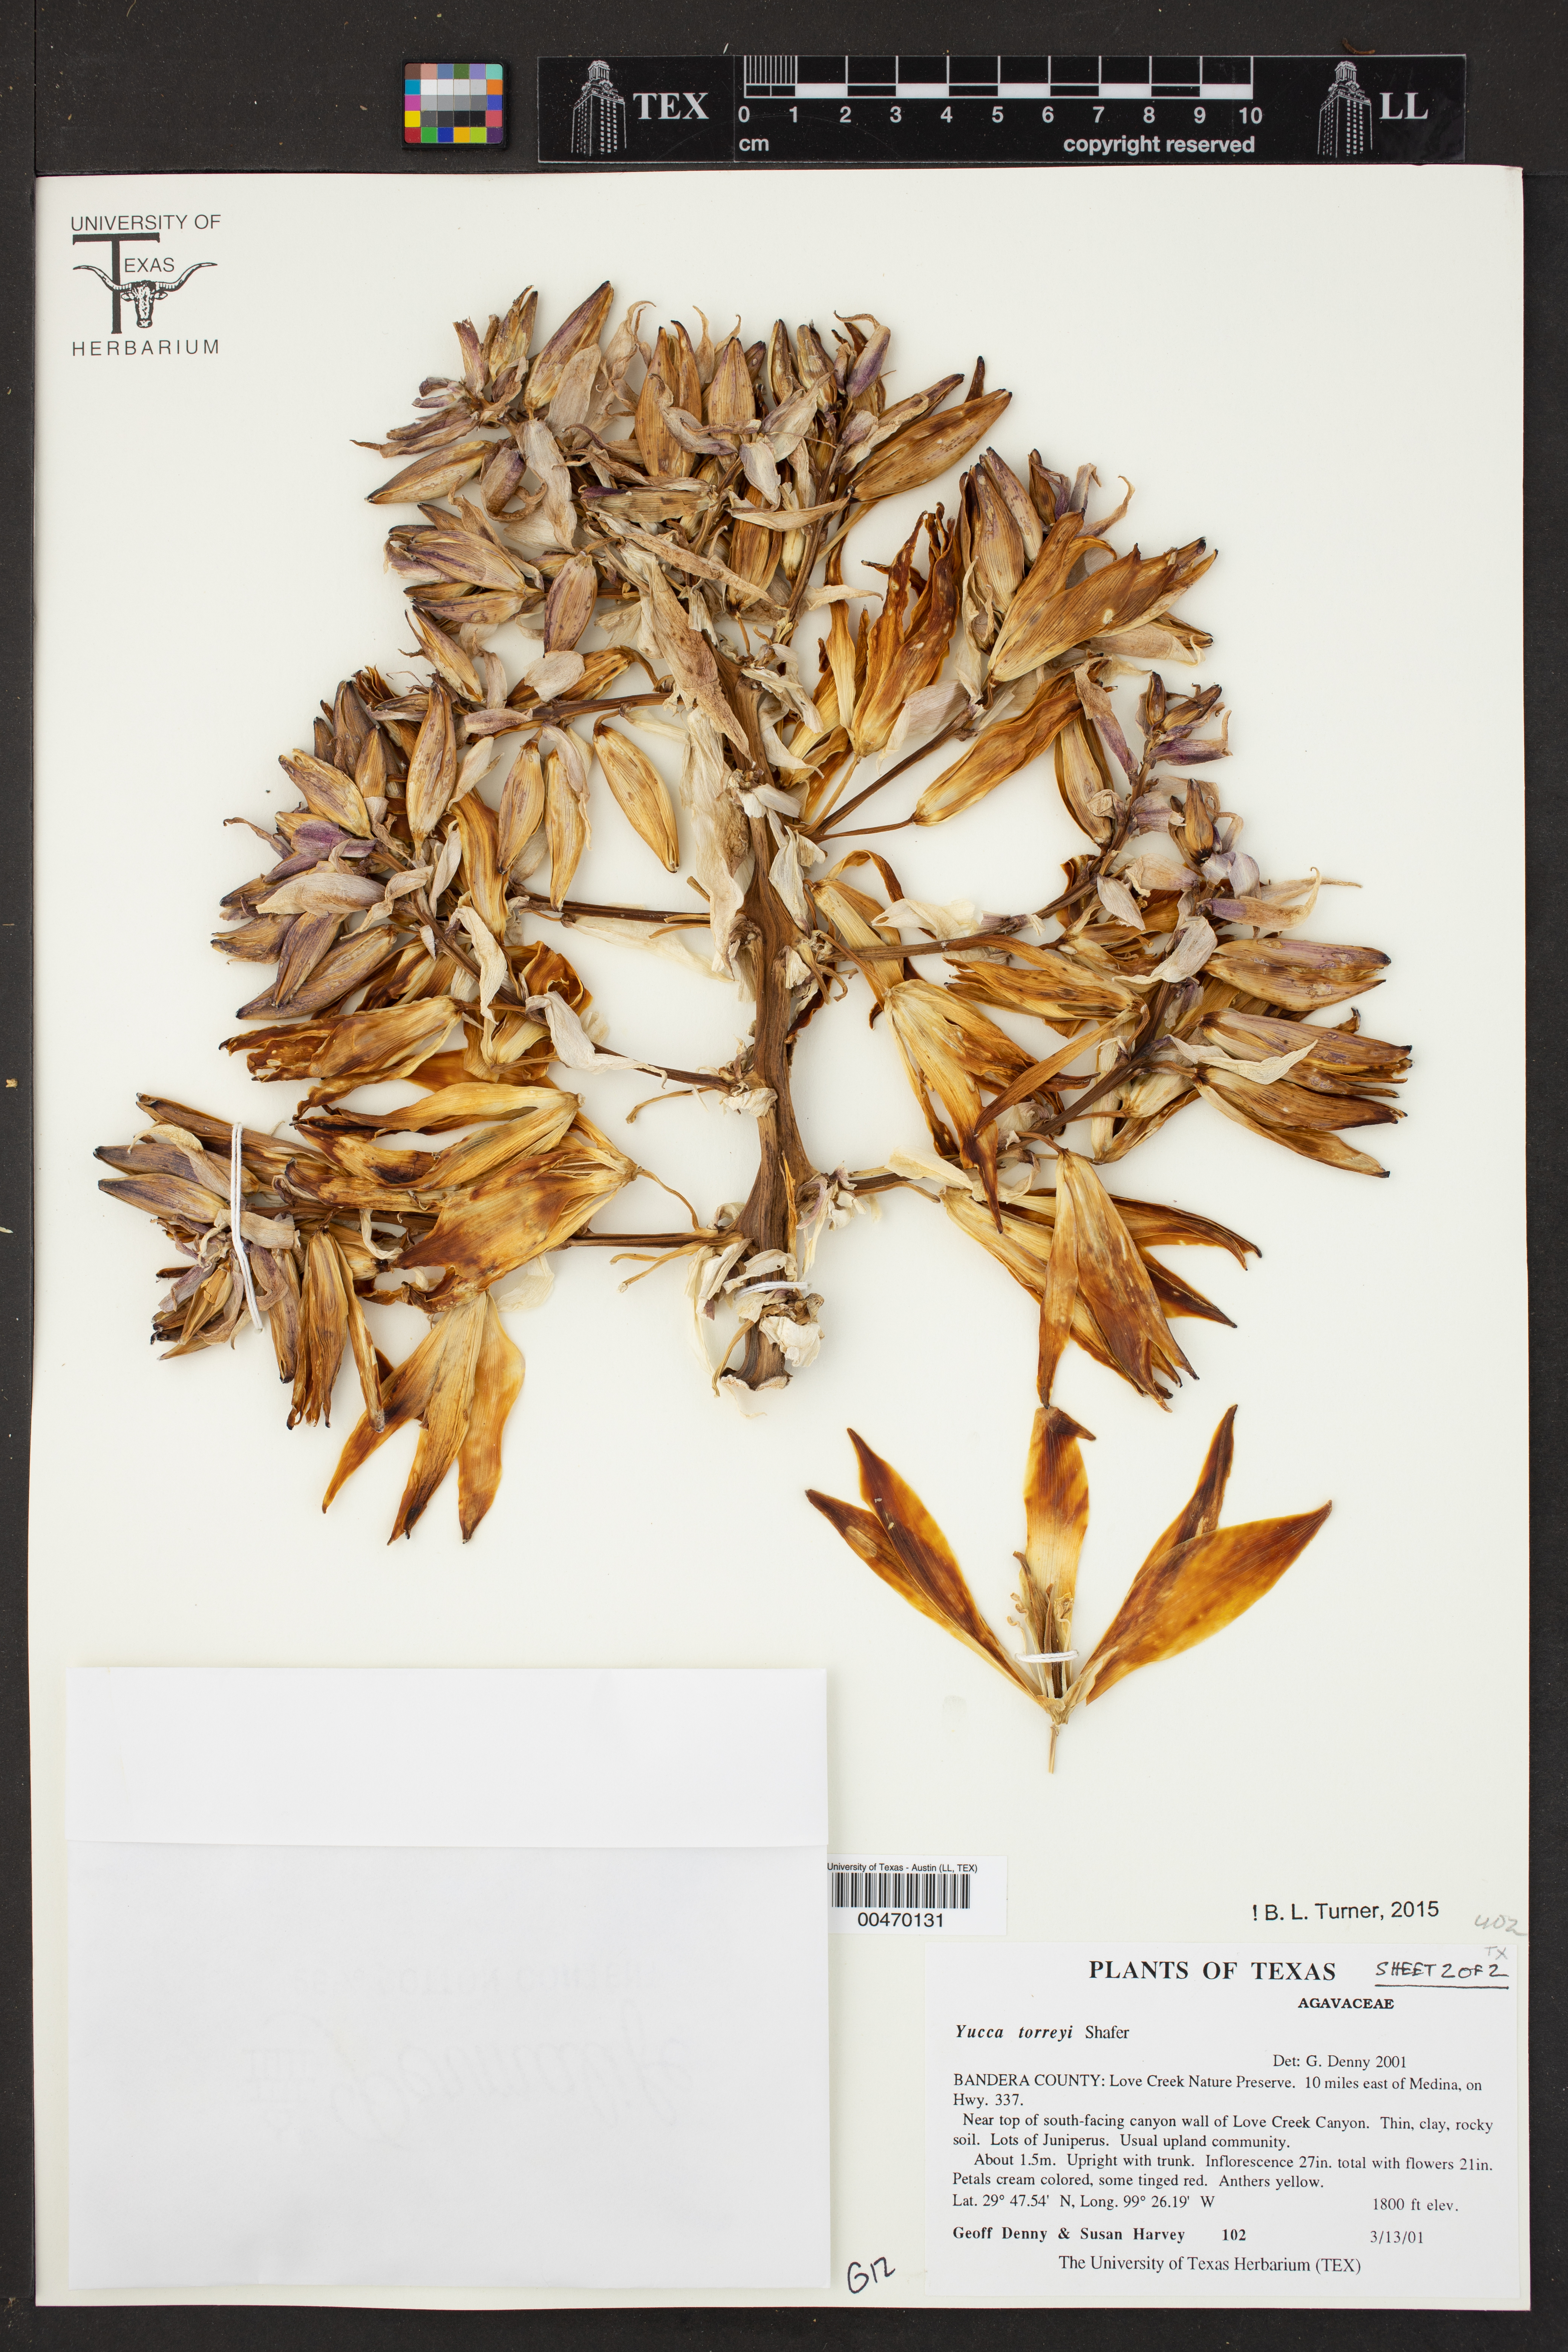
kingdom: Plantae
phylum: Tracheophyta
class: Liliopsida
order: Asparagales
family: Asparagaceae
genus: Yucca
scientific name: Yucca treculiana
